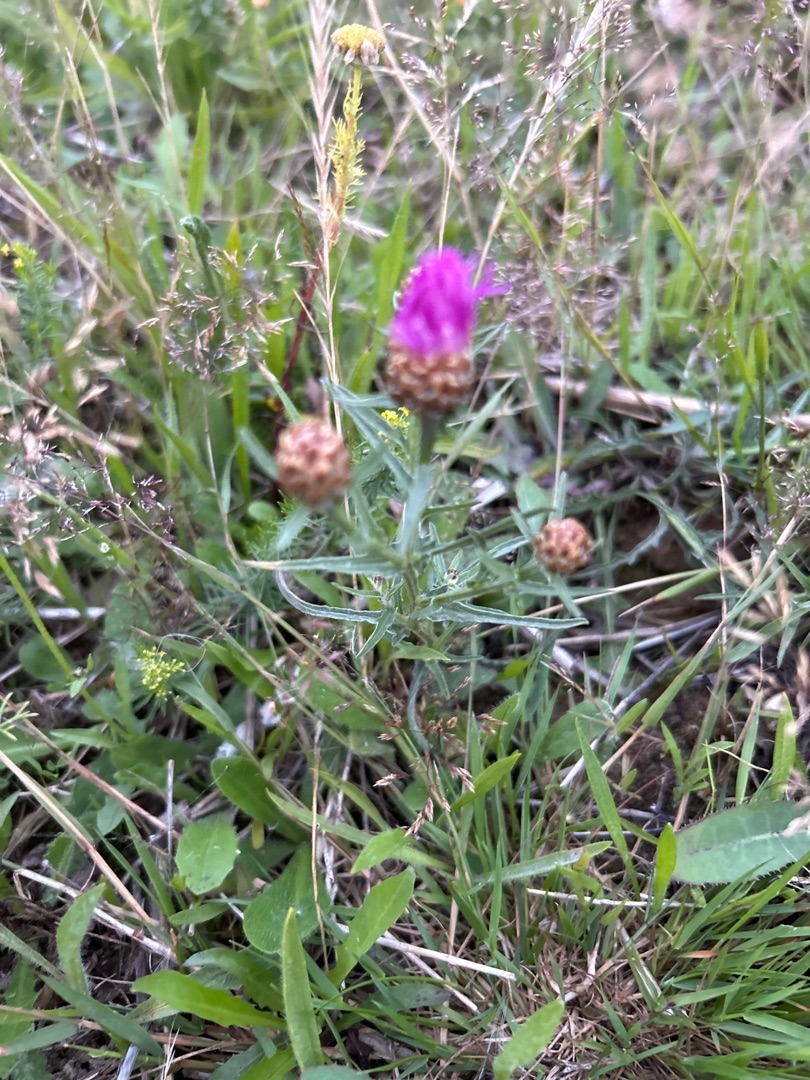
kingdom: Plantae
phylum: Tracheophyta
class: Magnoliopsida
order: Asterales
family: Asteraceae
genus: Centaurea
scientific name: Centaurea jacea
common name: Almindelig knopurt
